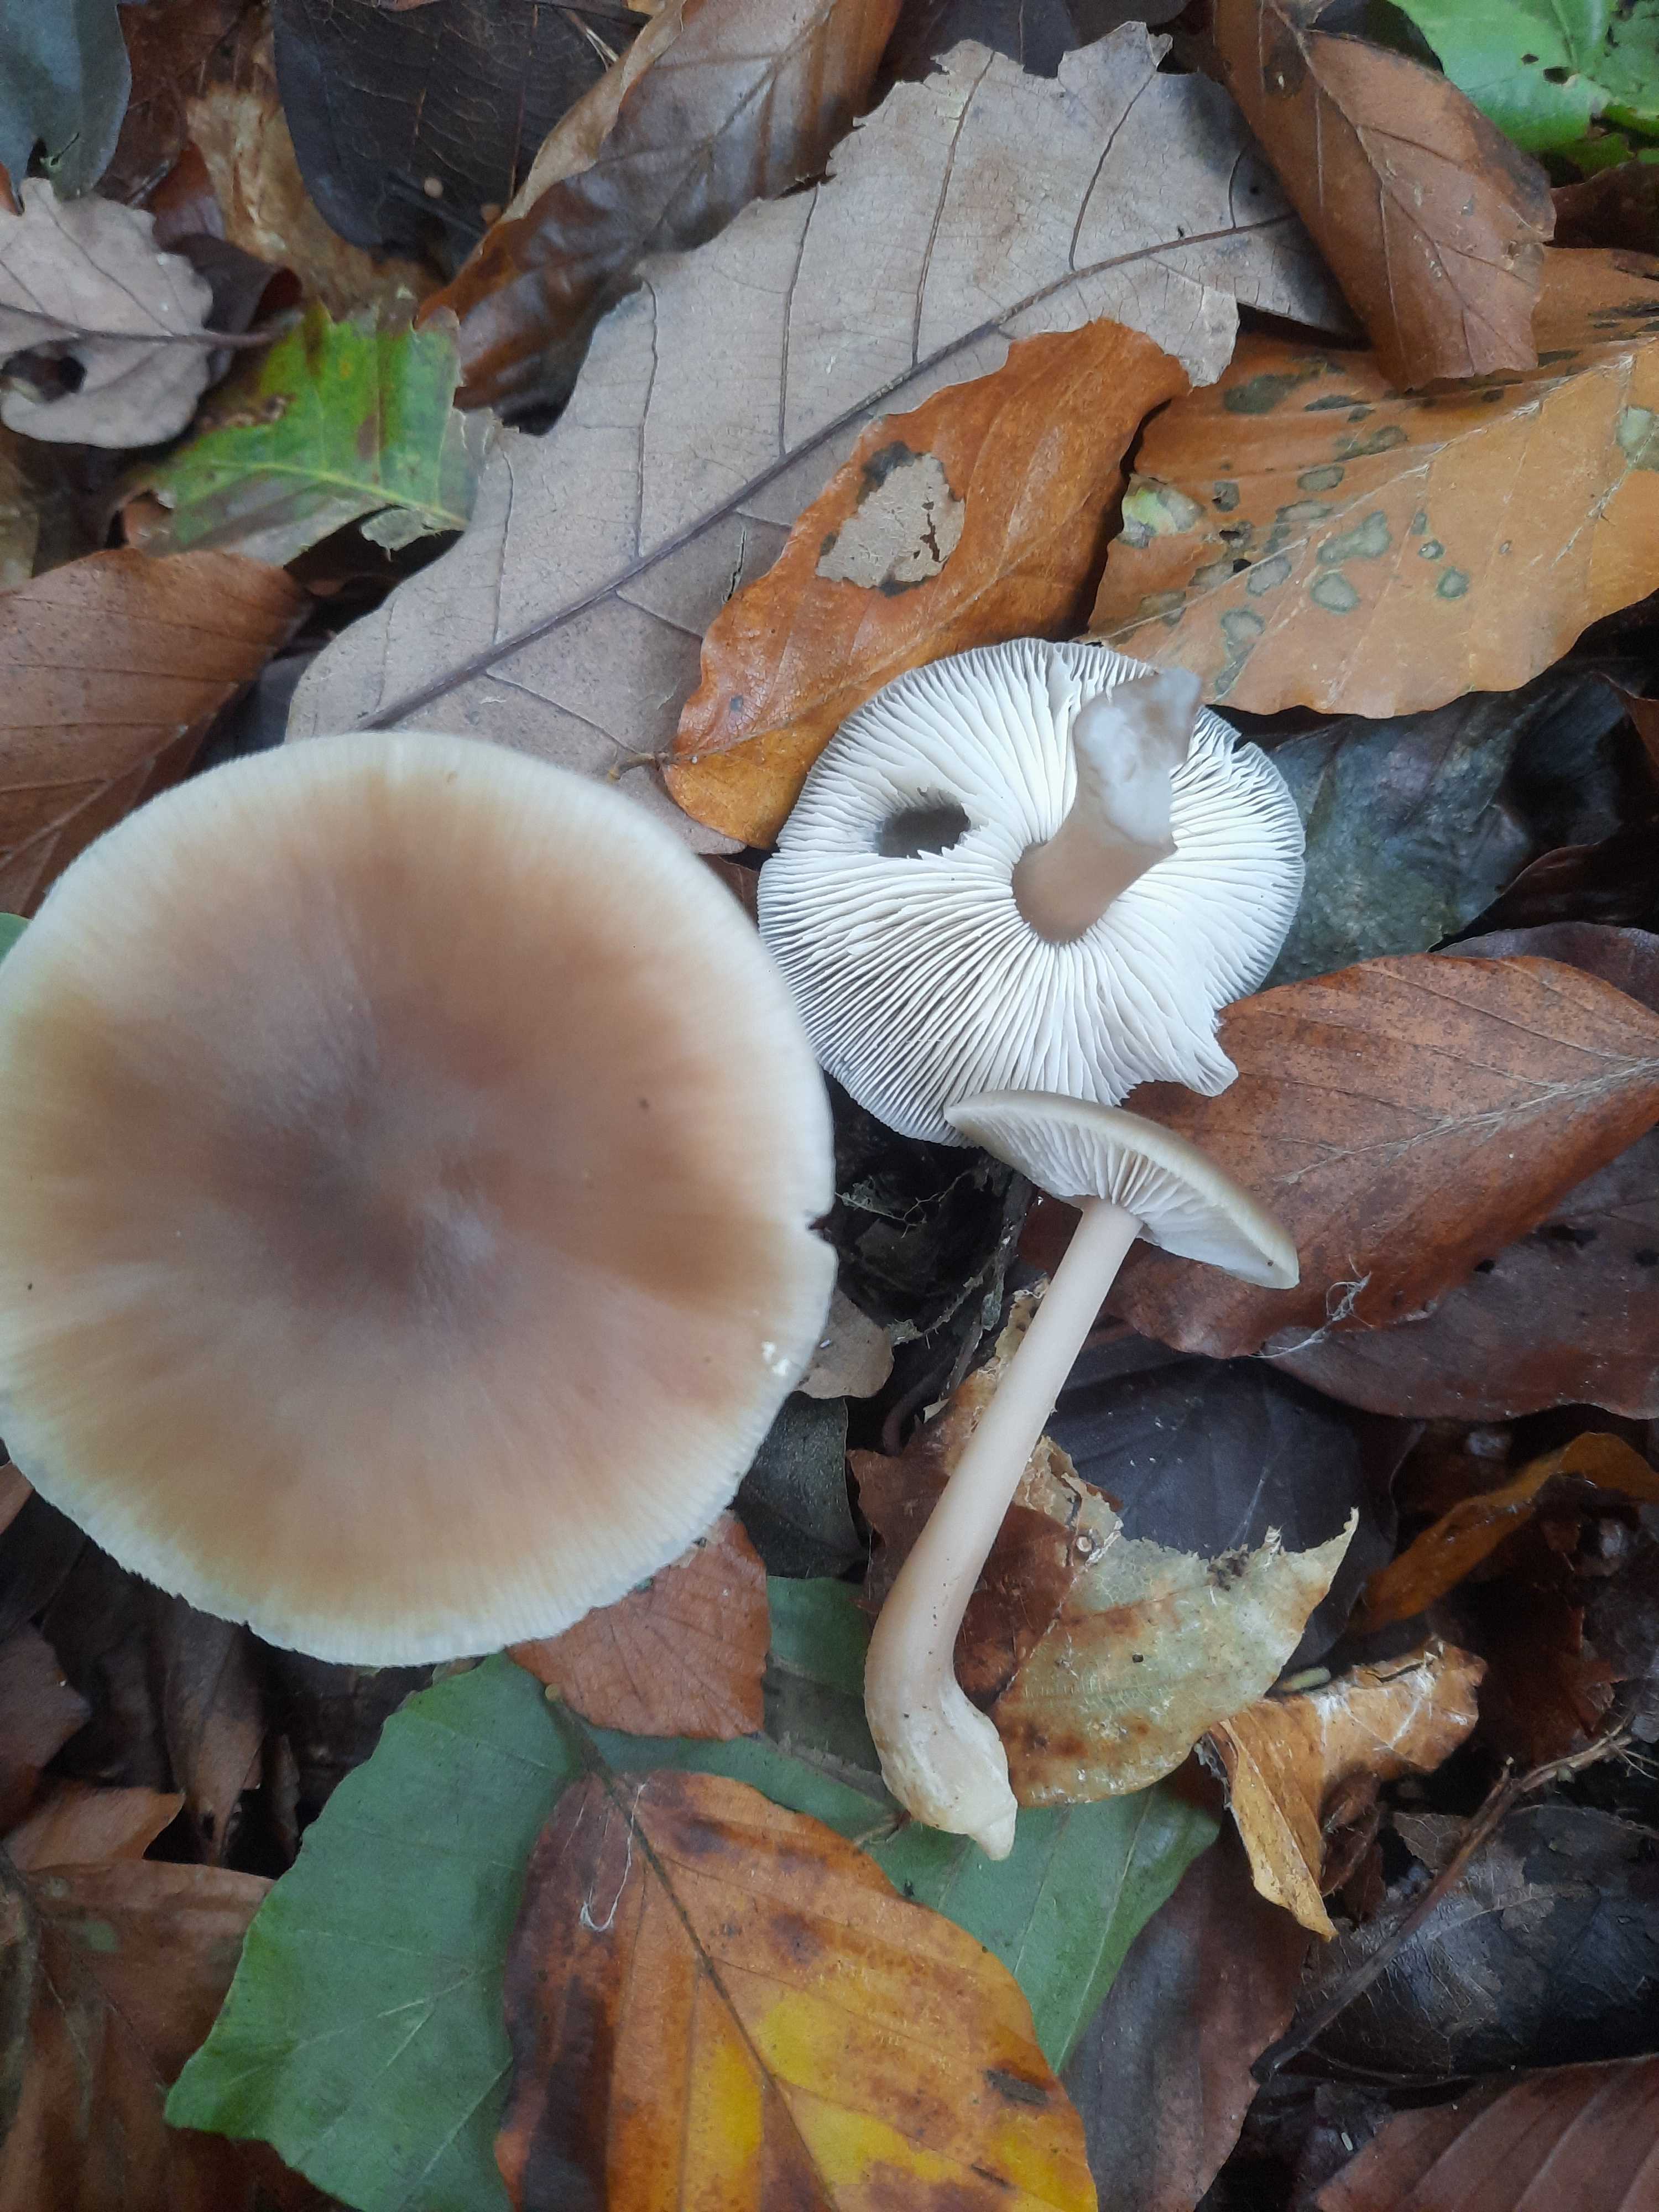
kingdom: Fungi
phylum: Basidiomycota
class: Agaricomycetes
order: Agaricales
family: Omphalotaceae
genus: Rhodocollybia
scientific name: Rhodocollybia asema
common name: horngrå fladhat
